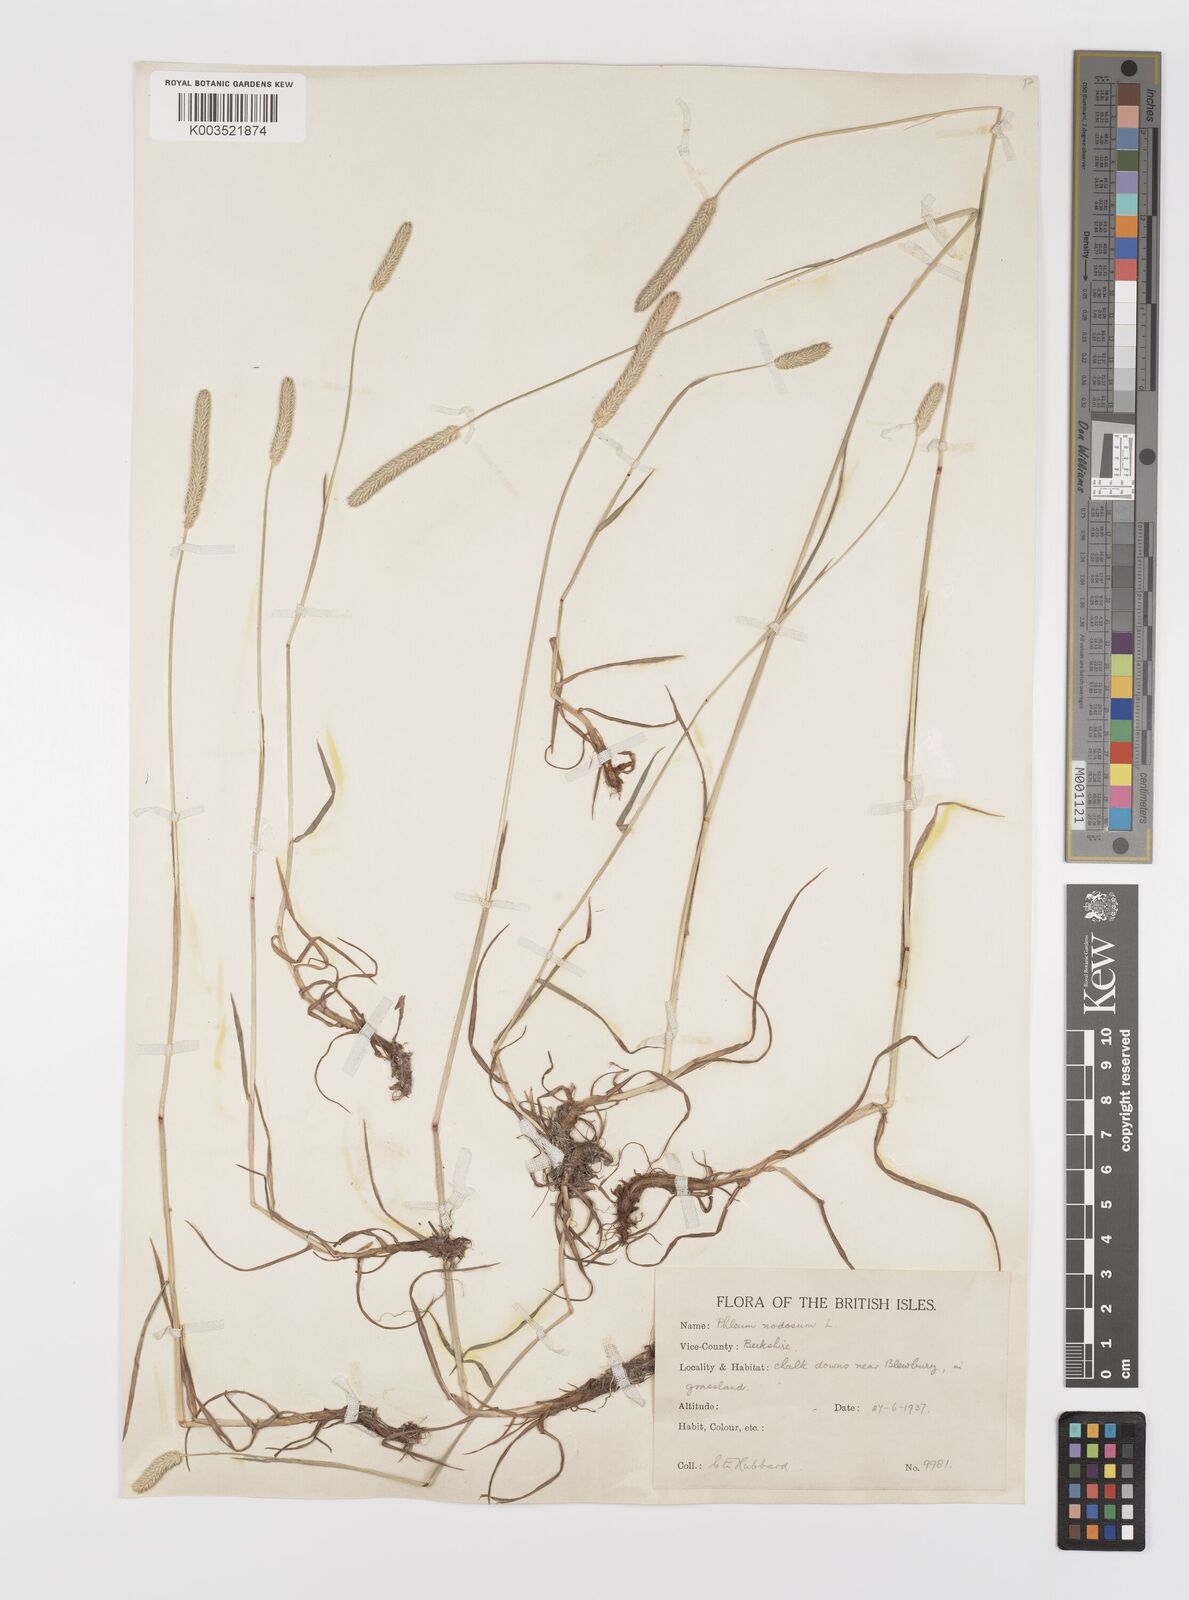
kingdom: Plantae
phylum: Tracheophyta
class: Liliopsida
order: Poales
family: Poaceae
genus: Phleum
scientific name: Phleum bertolonii
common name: Smaller cat's-tail
